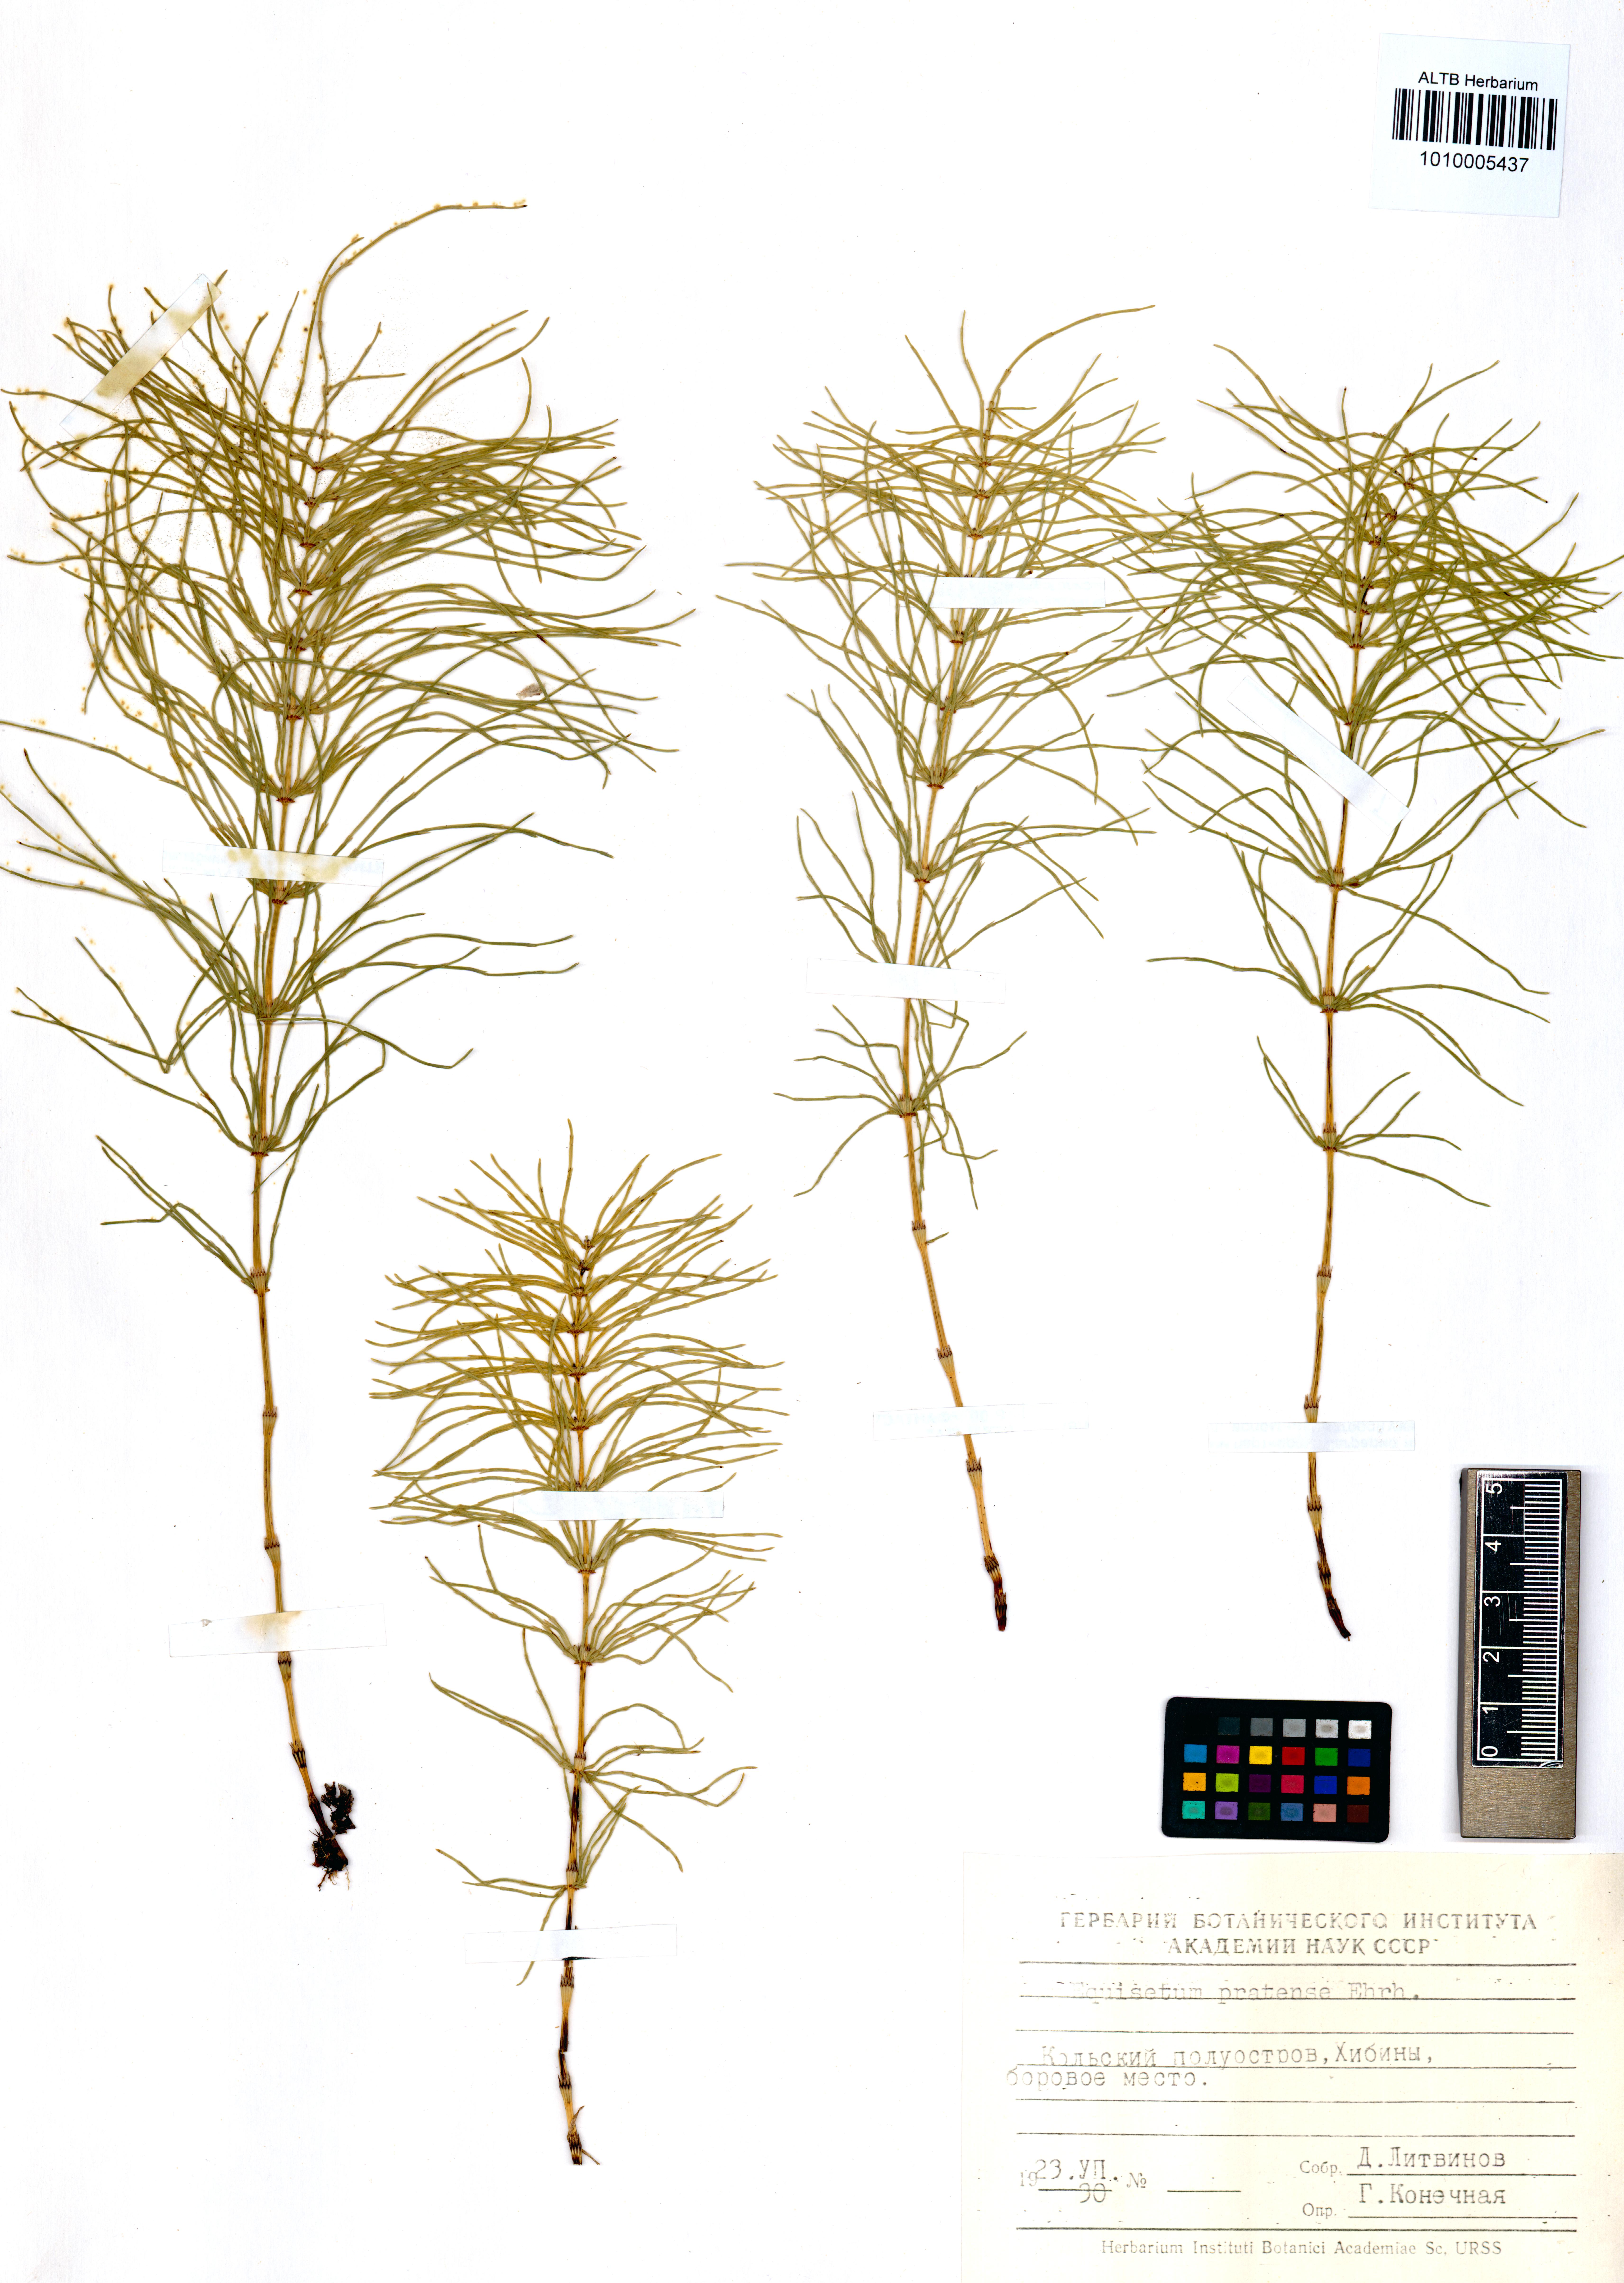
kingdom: Plantae
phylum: Tracheophyta
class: Polypodiopsida
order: Equisetales
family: Equisetaceae
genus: Equisetum
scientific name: Equisetum pratense
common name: Meadow horsetail
